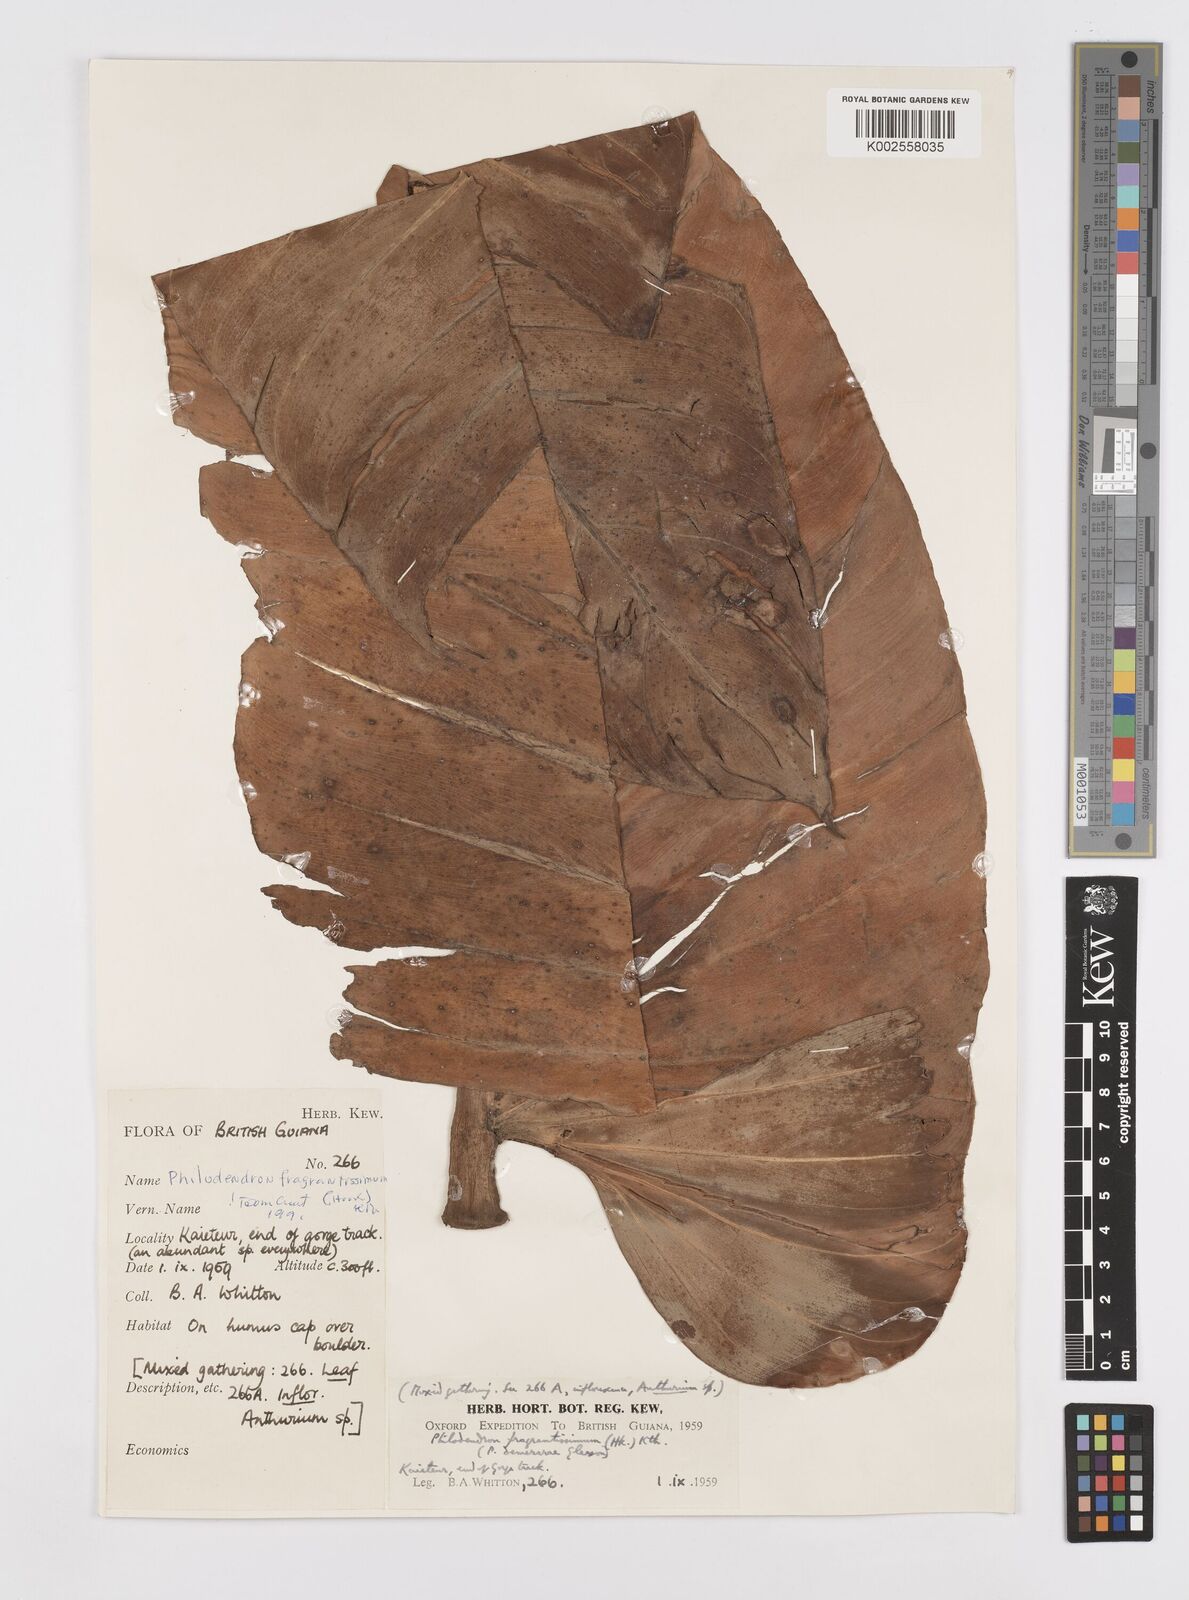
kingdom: Plantae
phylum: Tracheophyta
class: Liliopsida
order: Alismatales
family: Araceae
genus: Philodendron
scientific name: Philodendron fragrantissimum
